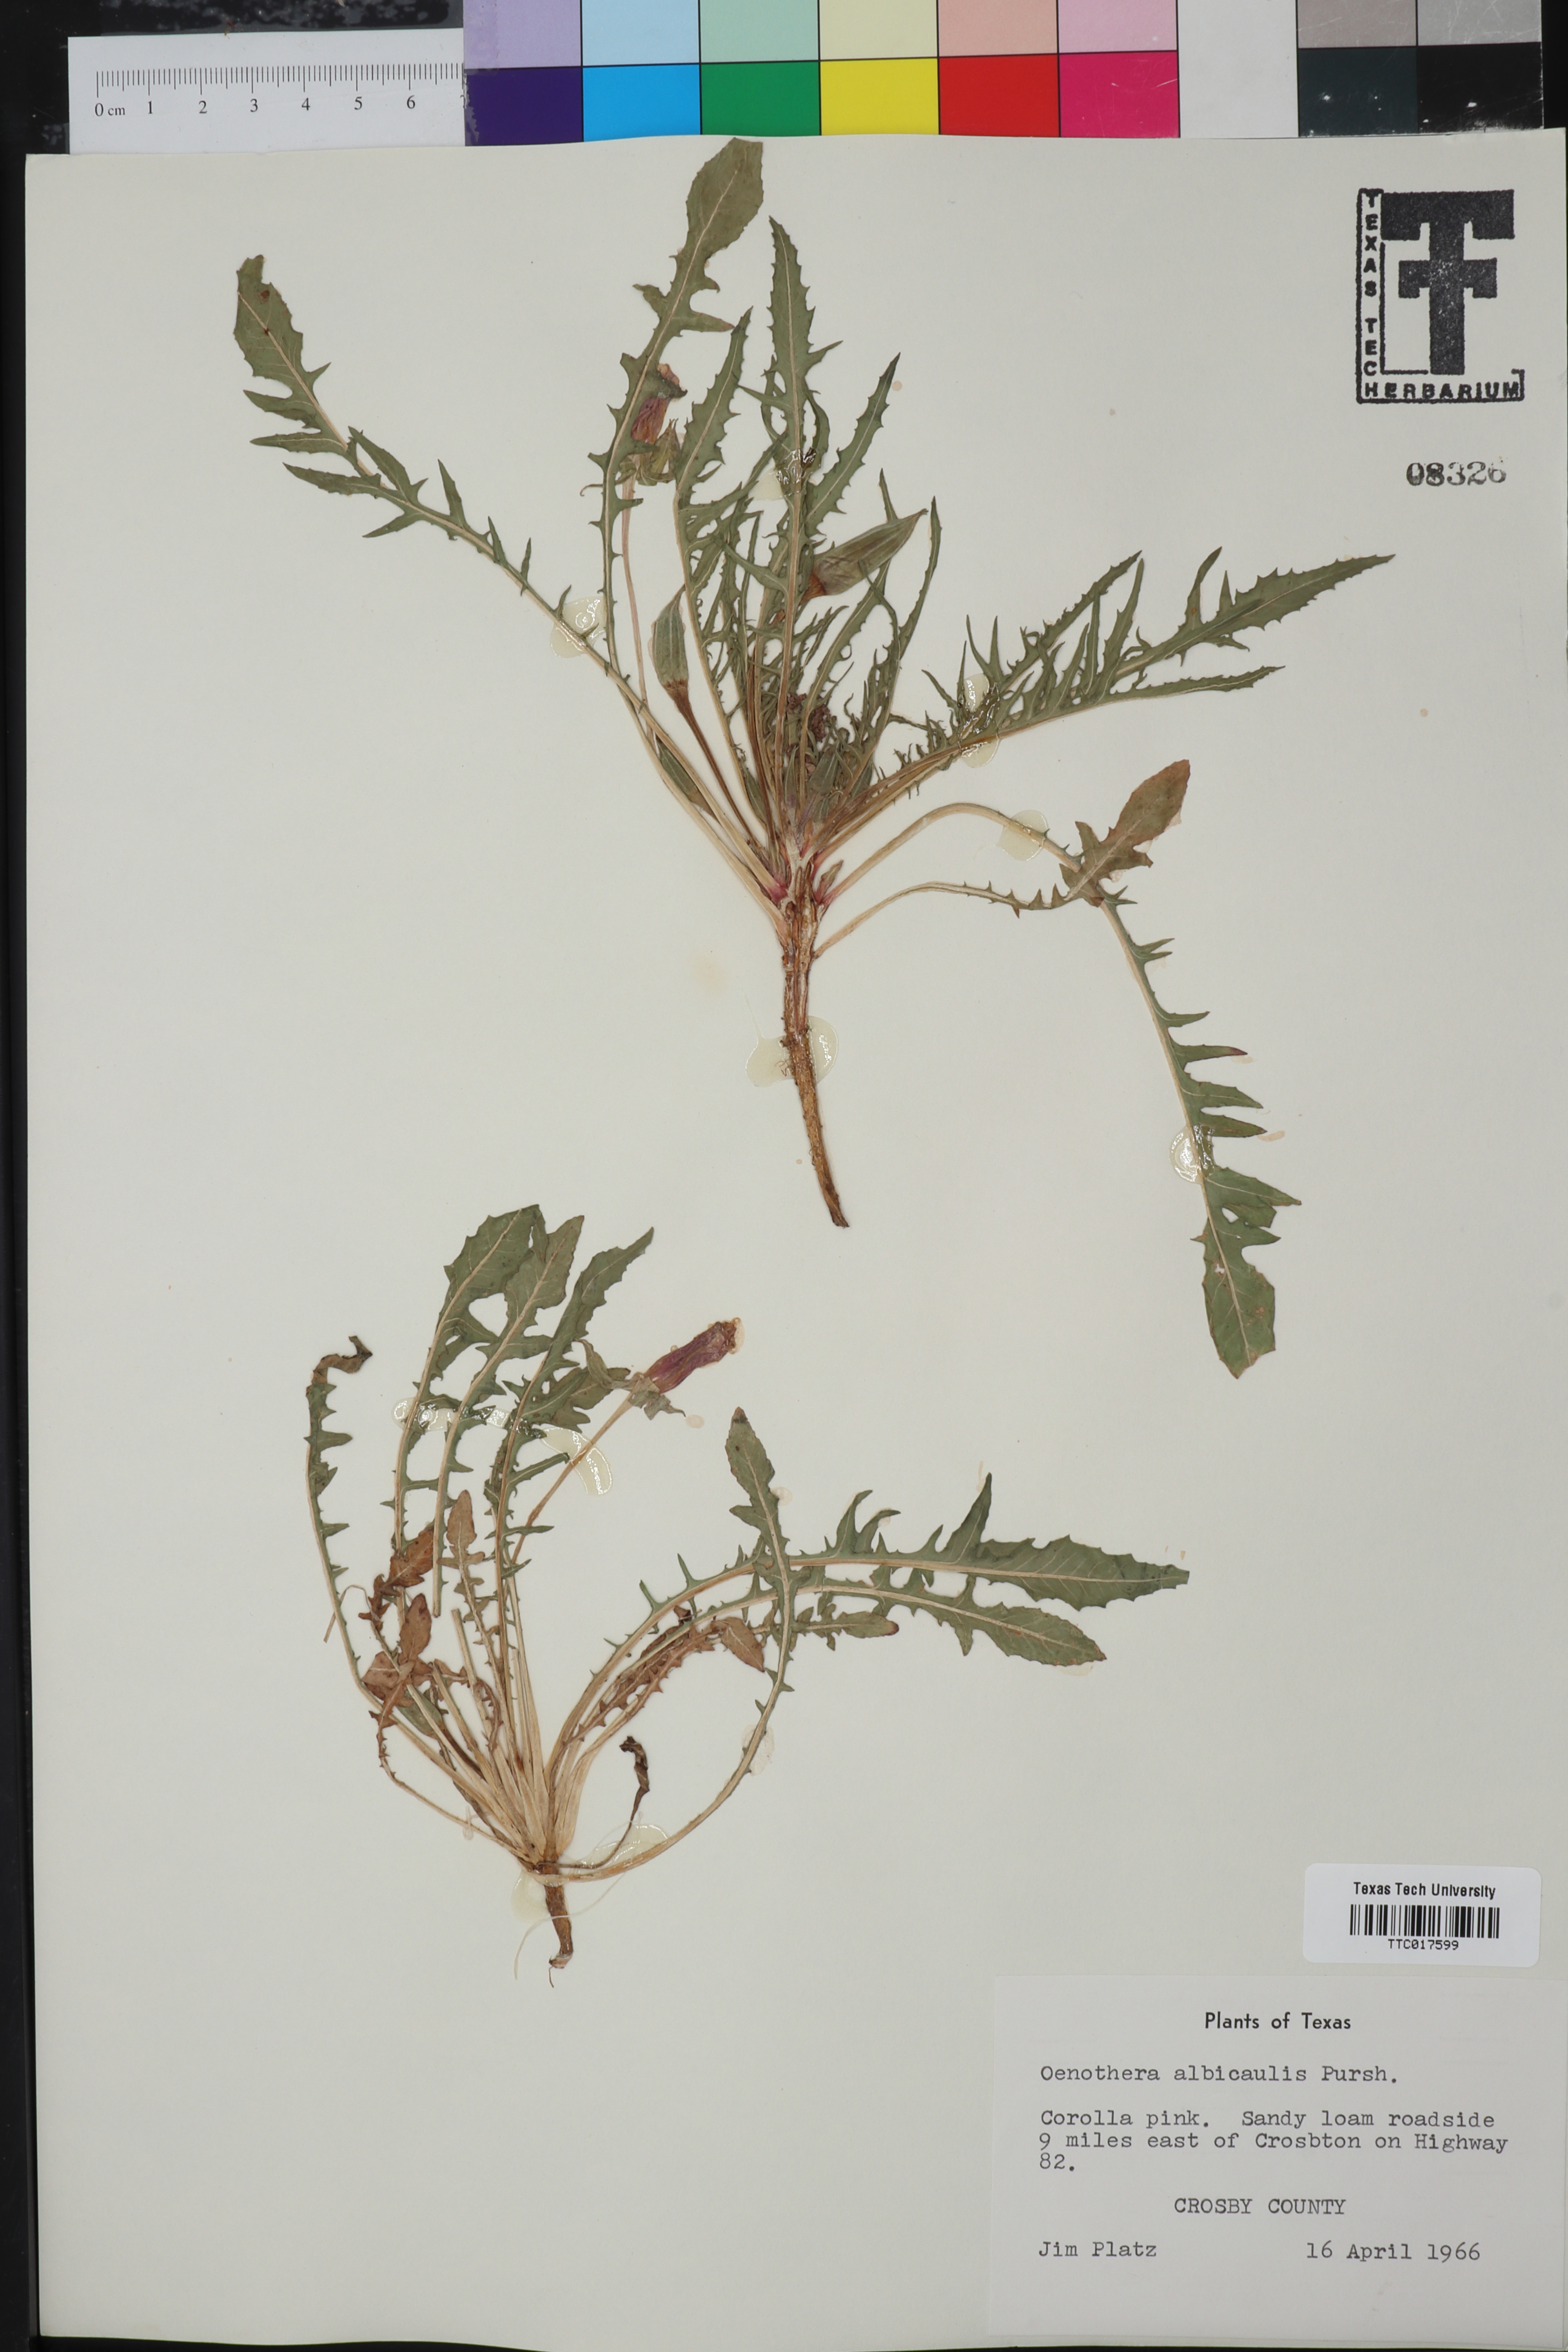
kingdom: Plantae
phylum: Tracheophyta
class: Magnoliopsida
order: Myrtales
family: Onagraceae
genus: Oenothera
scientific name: Oenothera albicaulis
